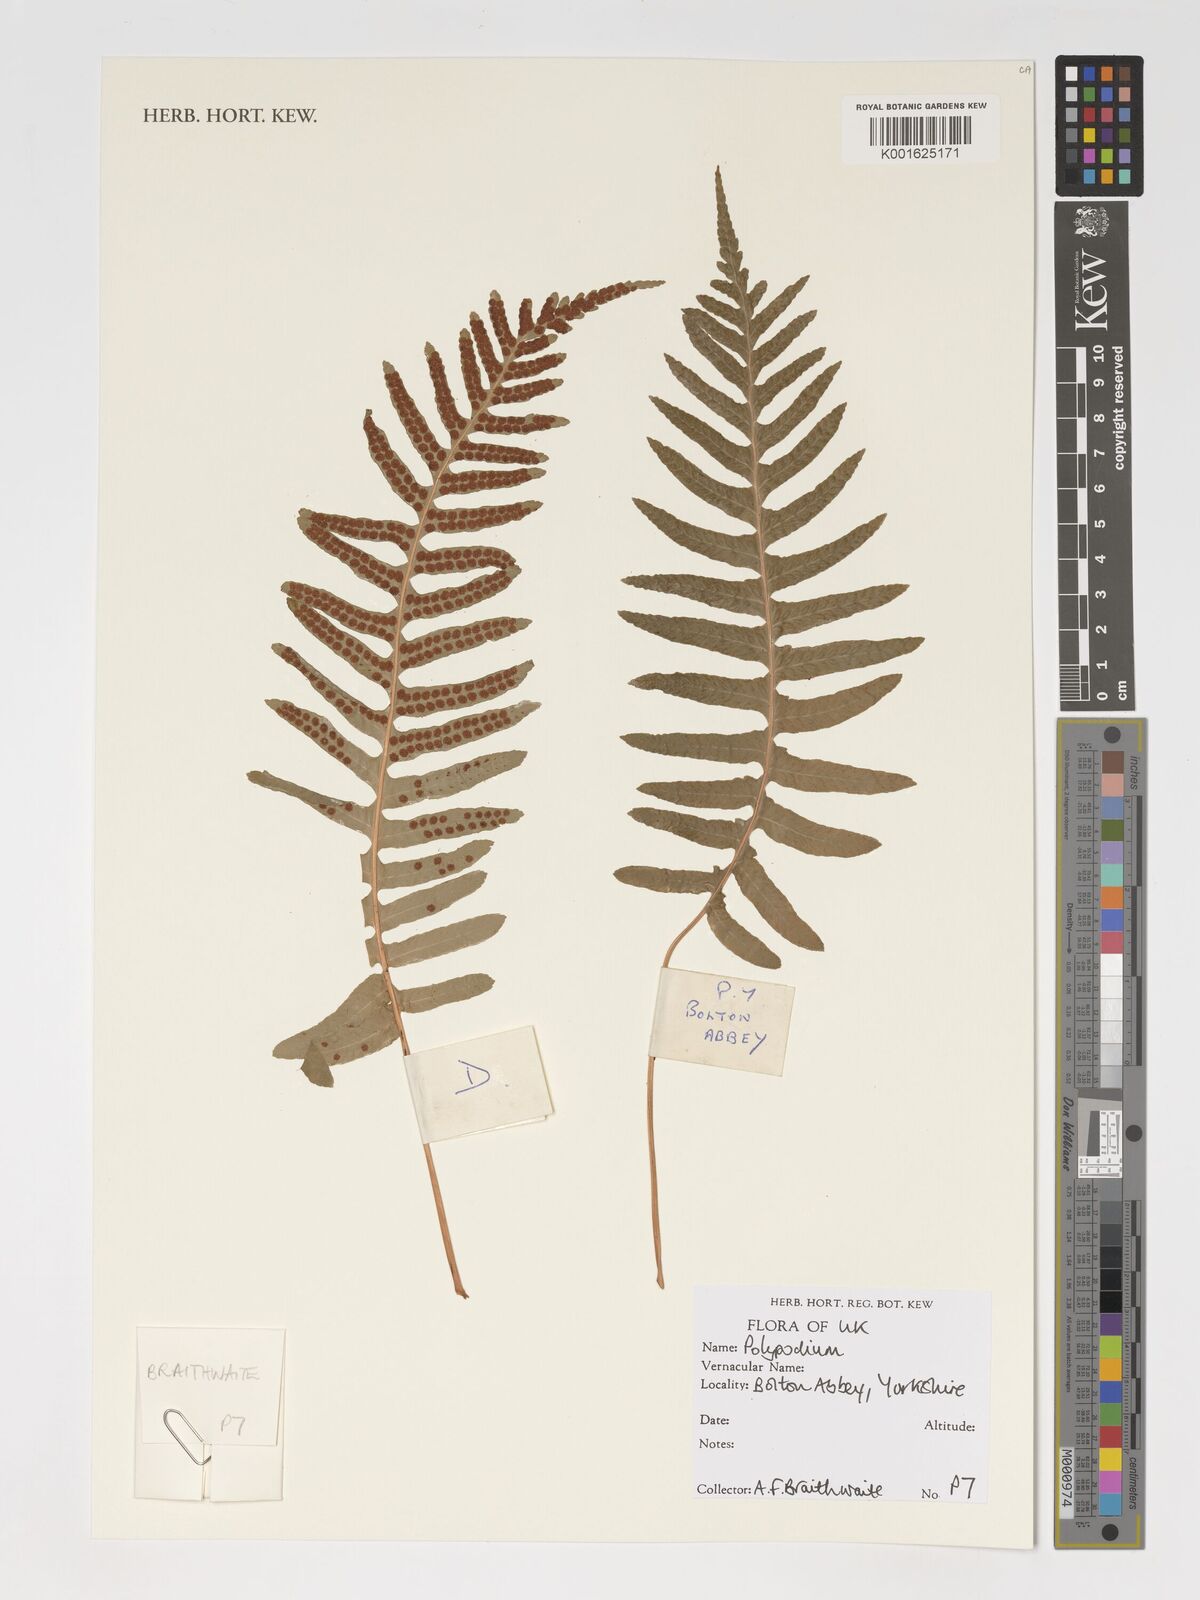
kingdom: Plantae
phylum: Tracheophyta
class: Polypodiopsida
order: Polypodiales
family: Polypodiaceae
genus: Polypodium
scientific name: Polypodium
